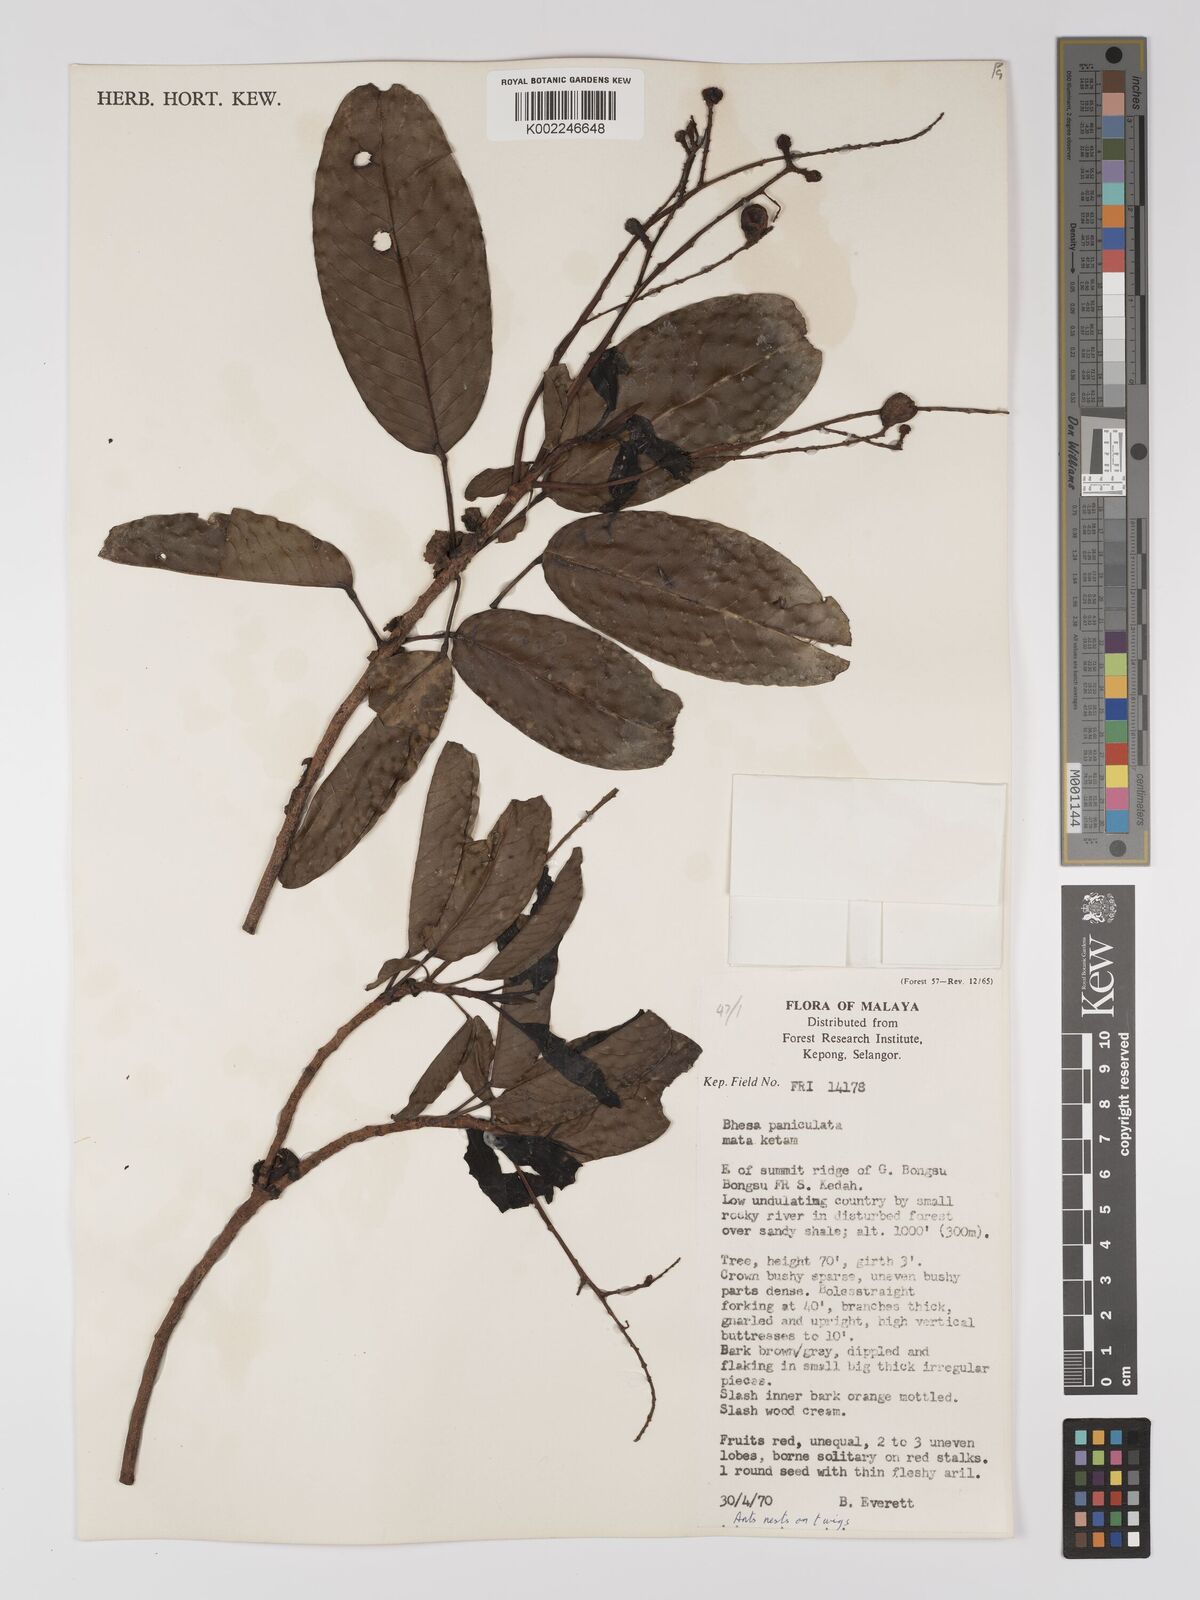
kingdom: Plantae
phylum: Tracheophyta
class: Magnoliopsida
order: Malpighiales
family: Centroplacaceae
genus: Bhesa
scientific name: Bhesa paniculata
